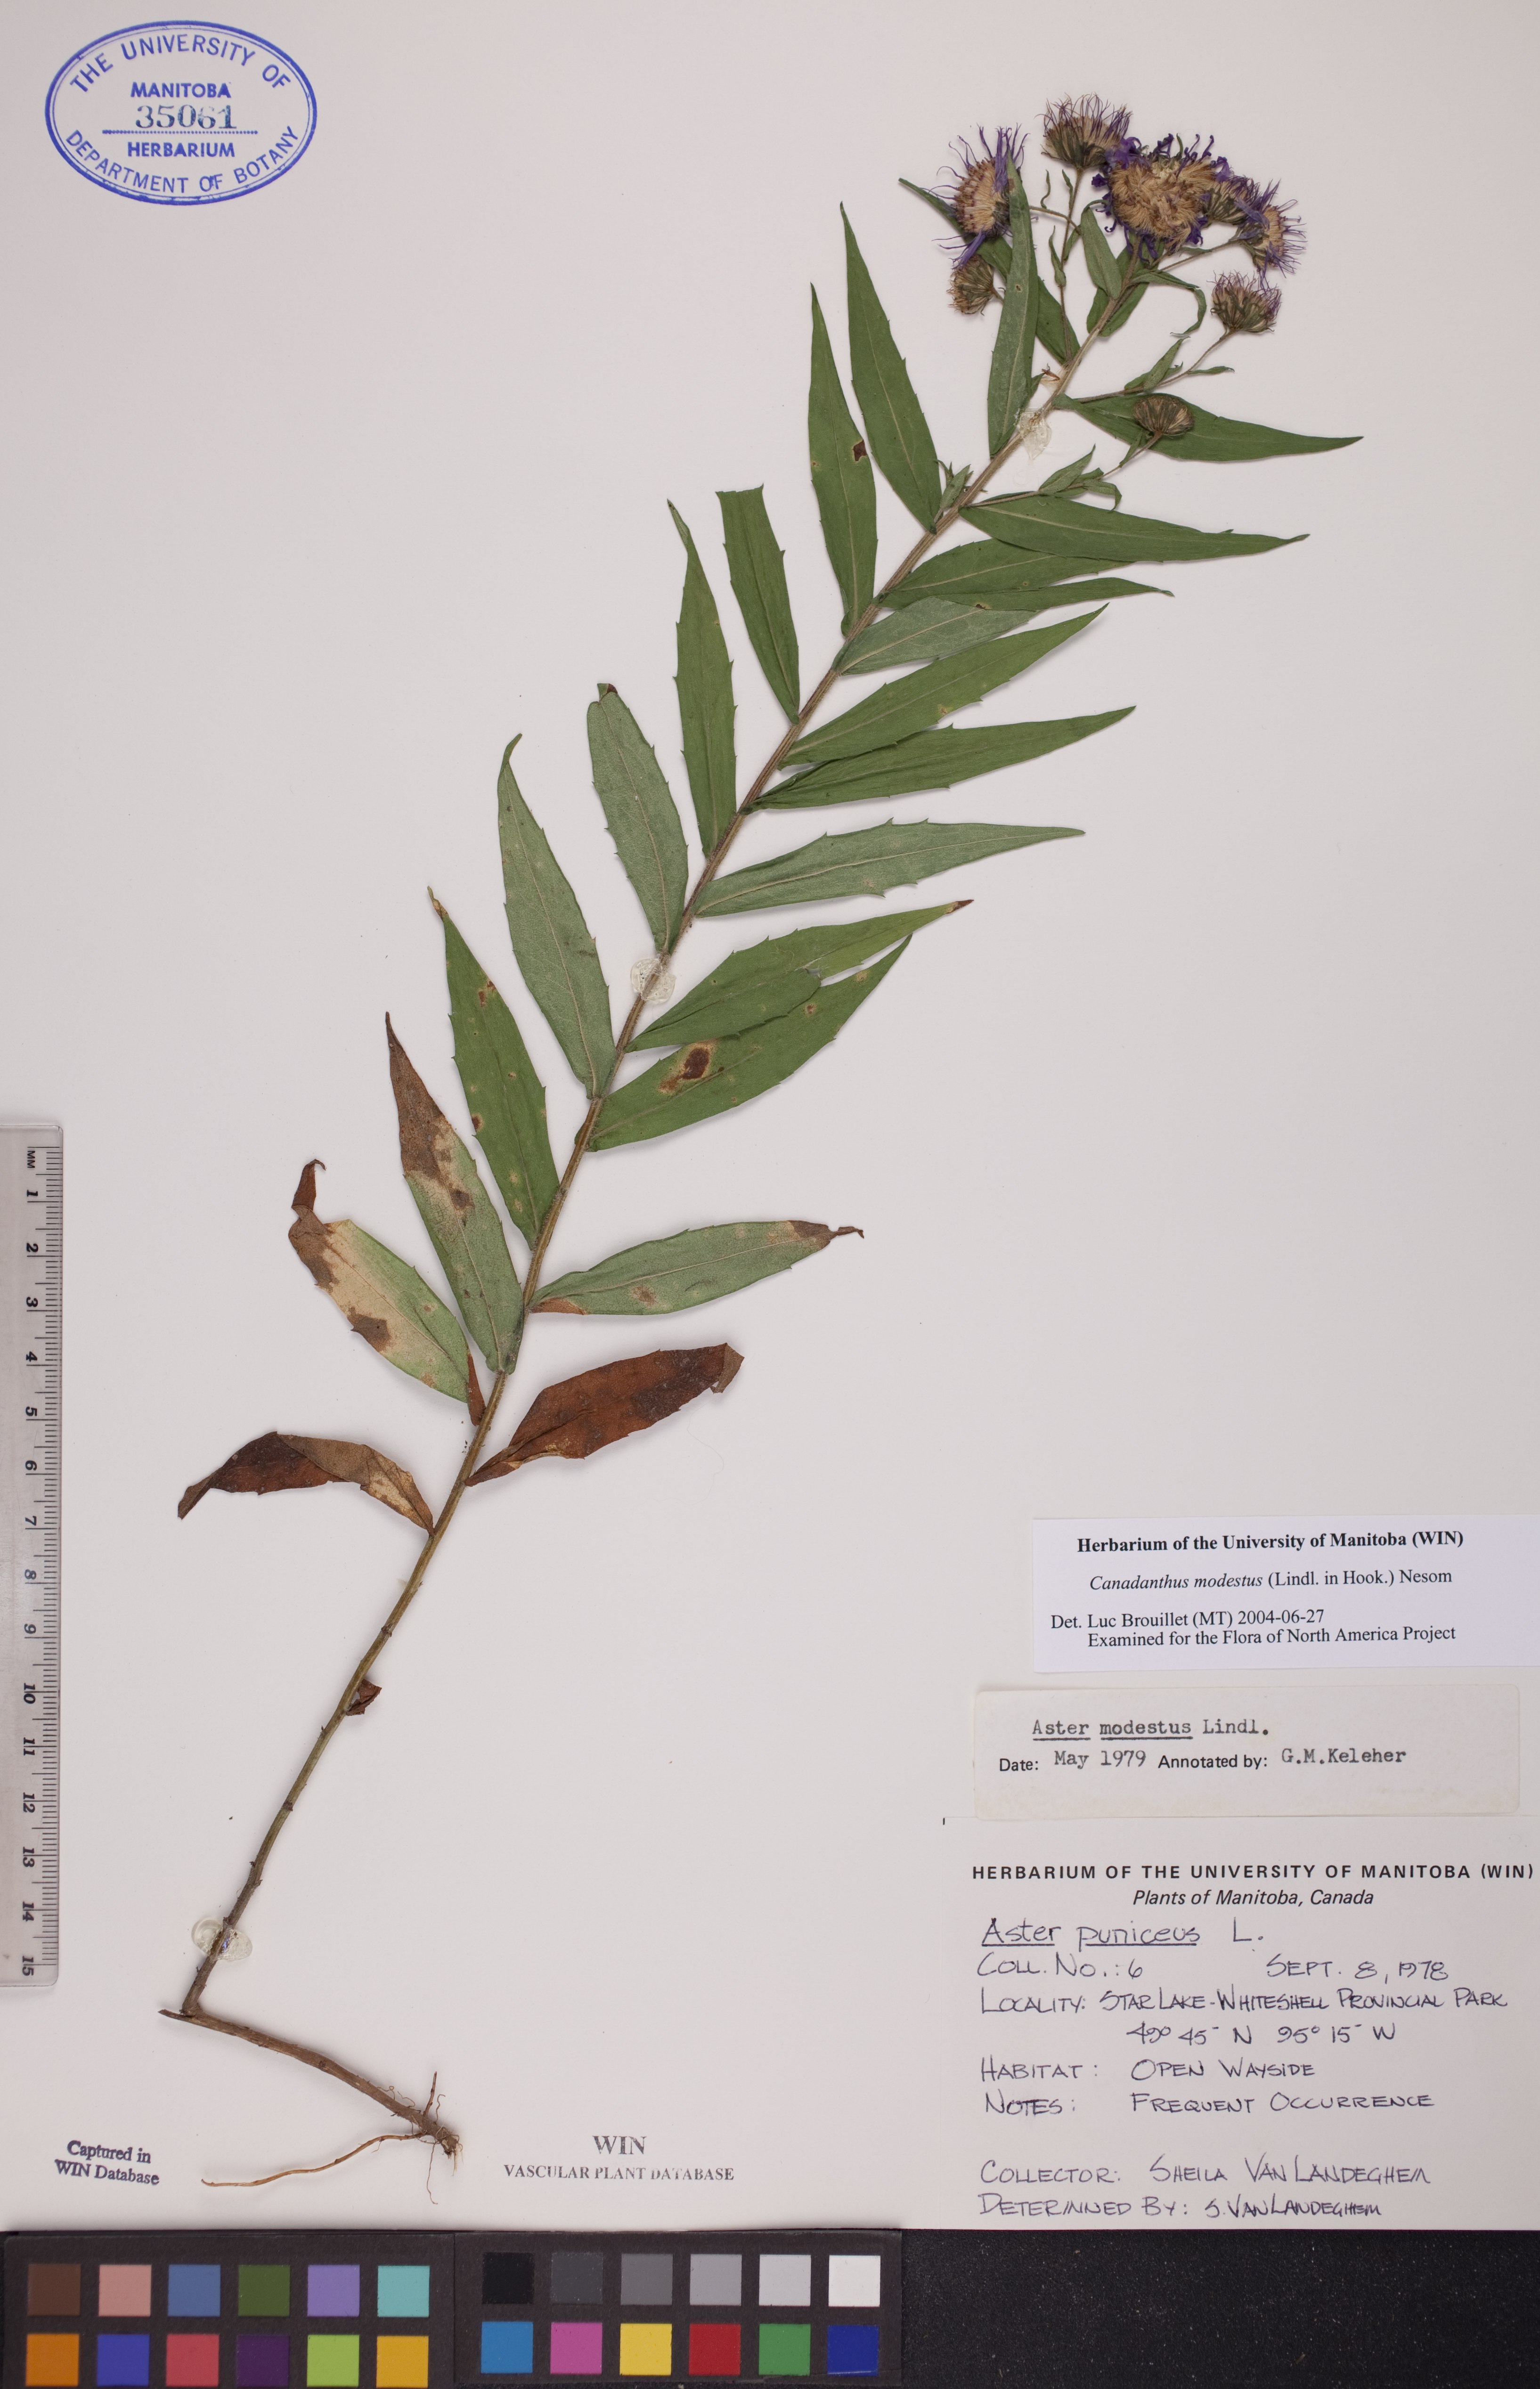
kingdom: Plantae
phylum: Tracheophyta
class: Magnoliopsida
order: Asterales
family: Asteraceae
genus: Canadanthus
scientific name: Canadanthus modestus
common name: Great northern aster
